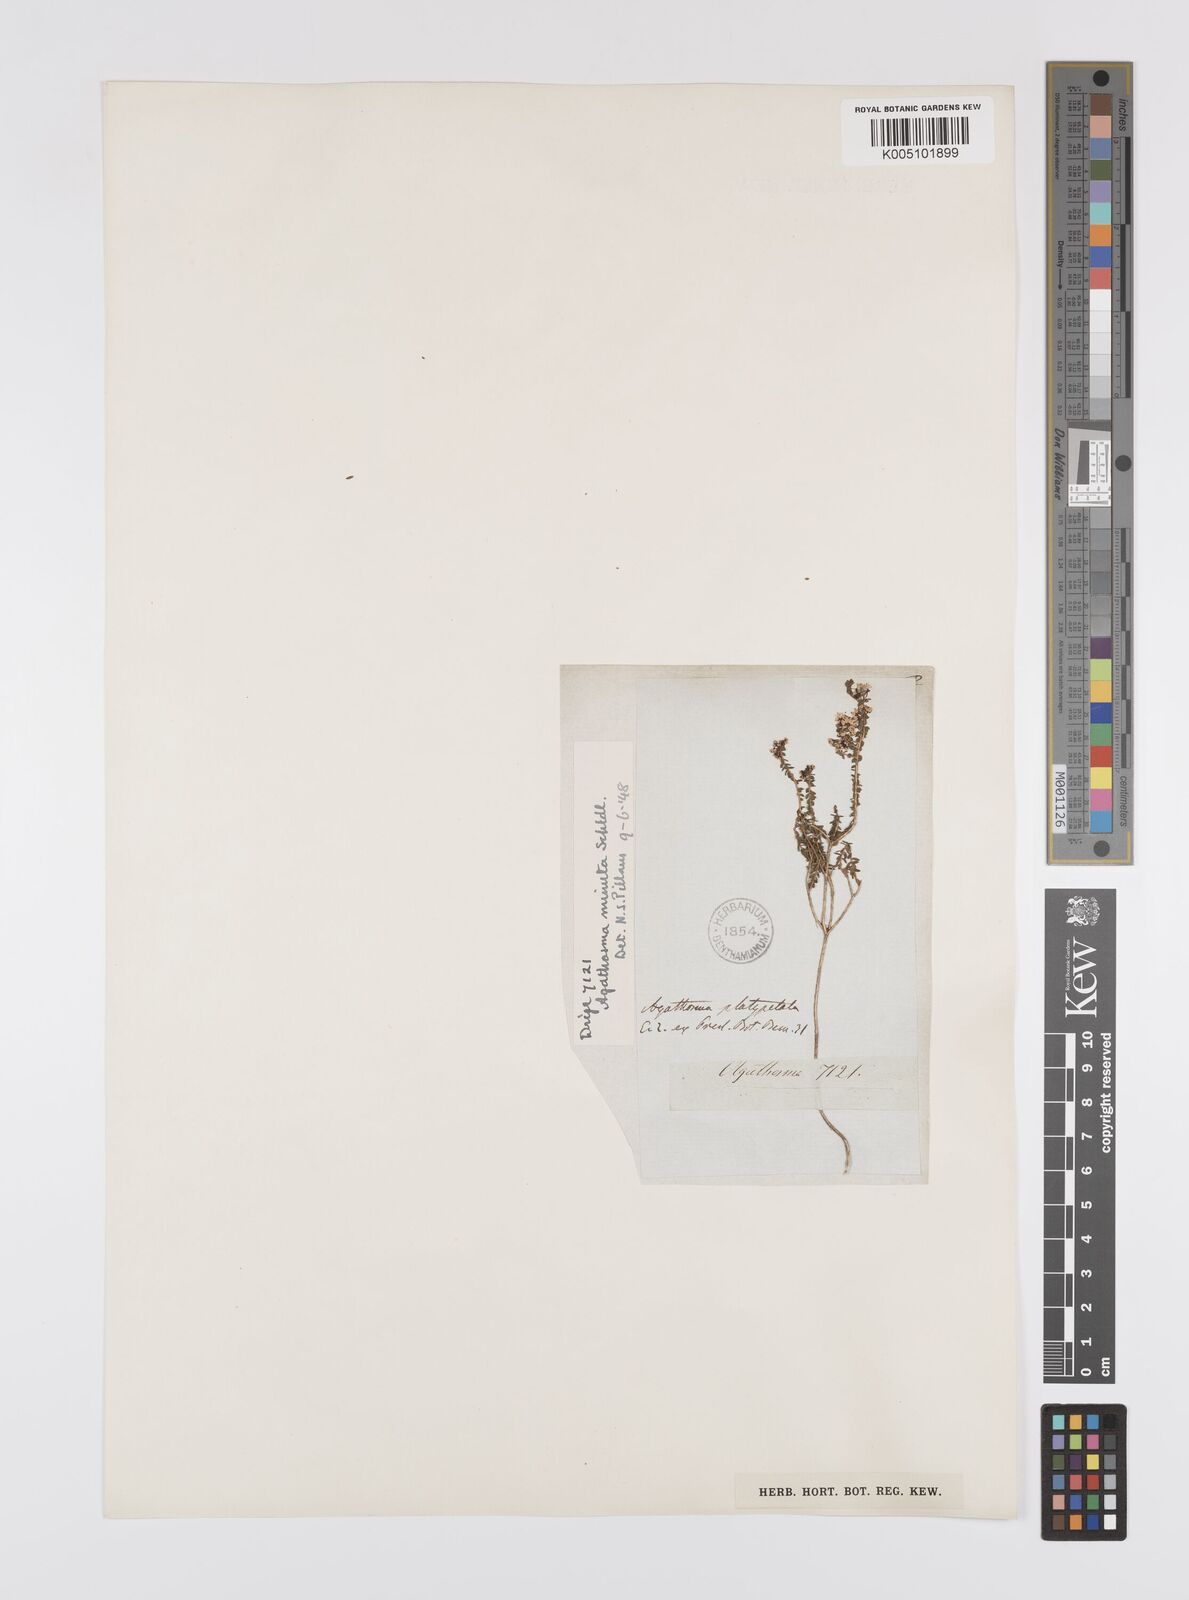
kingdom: Plantae
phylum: Tracheophyta
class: Magnoliopsida
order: Sapindales
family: Rutaceae
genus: Agathosma
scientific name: Agathosma minuta
